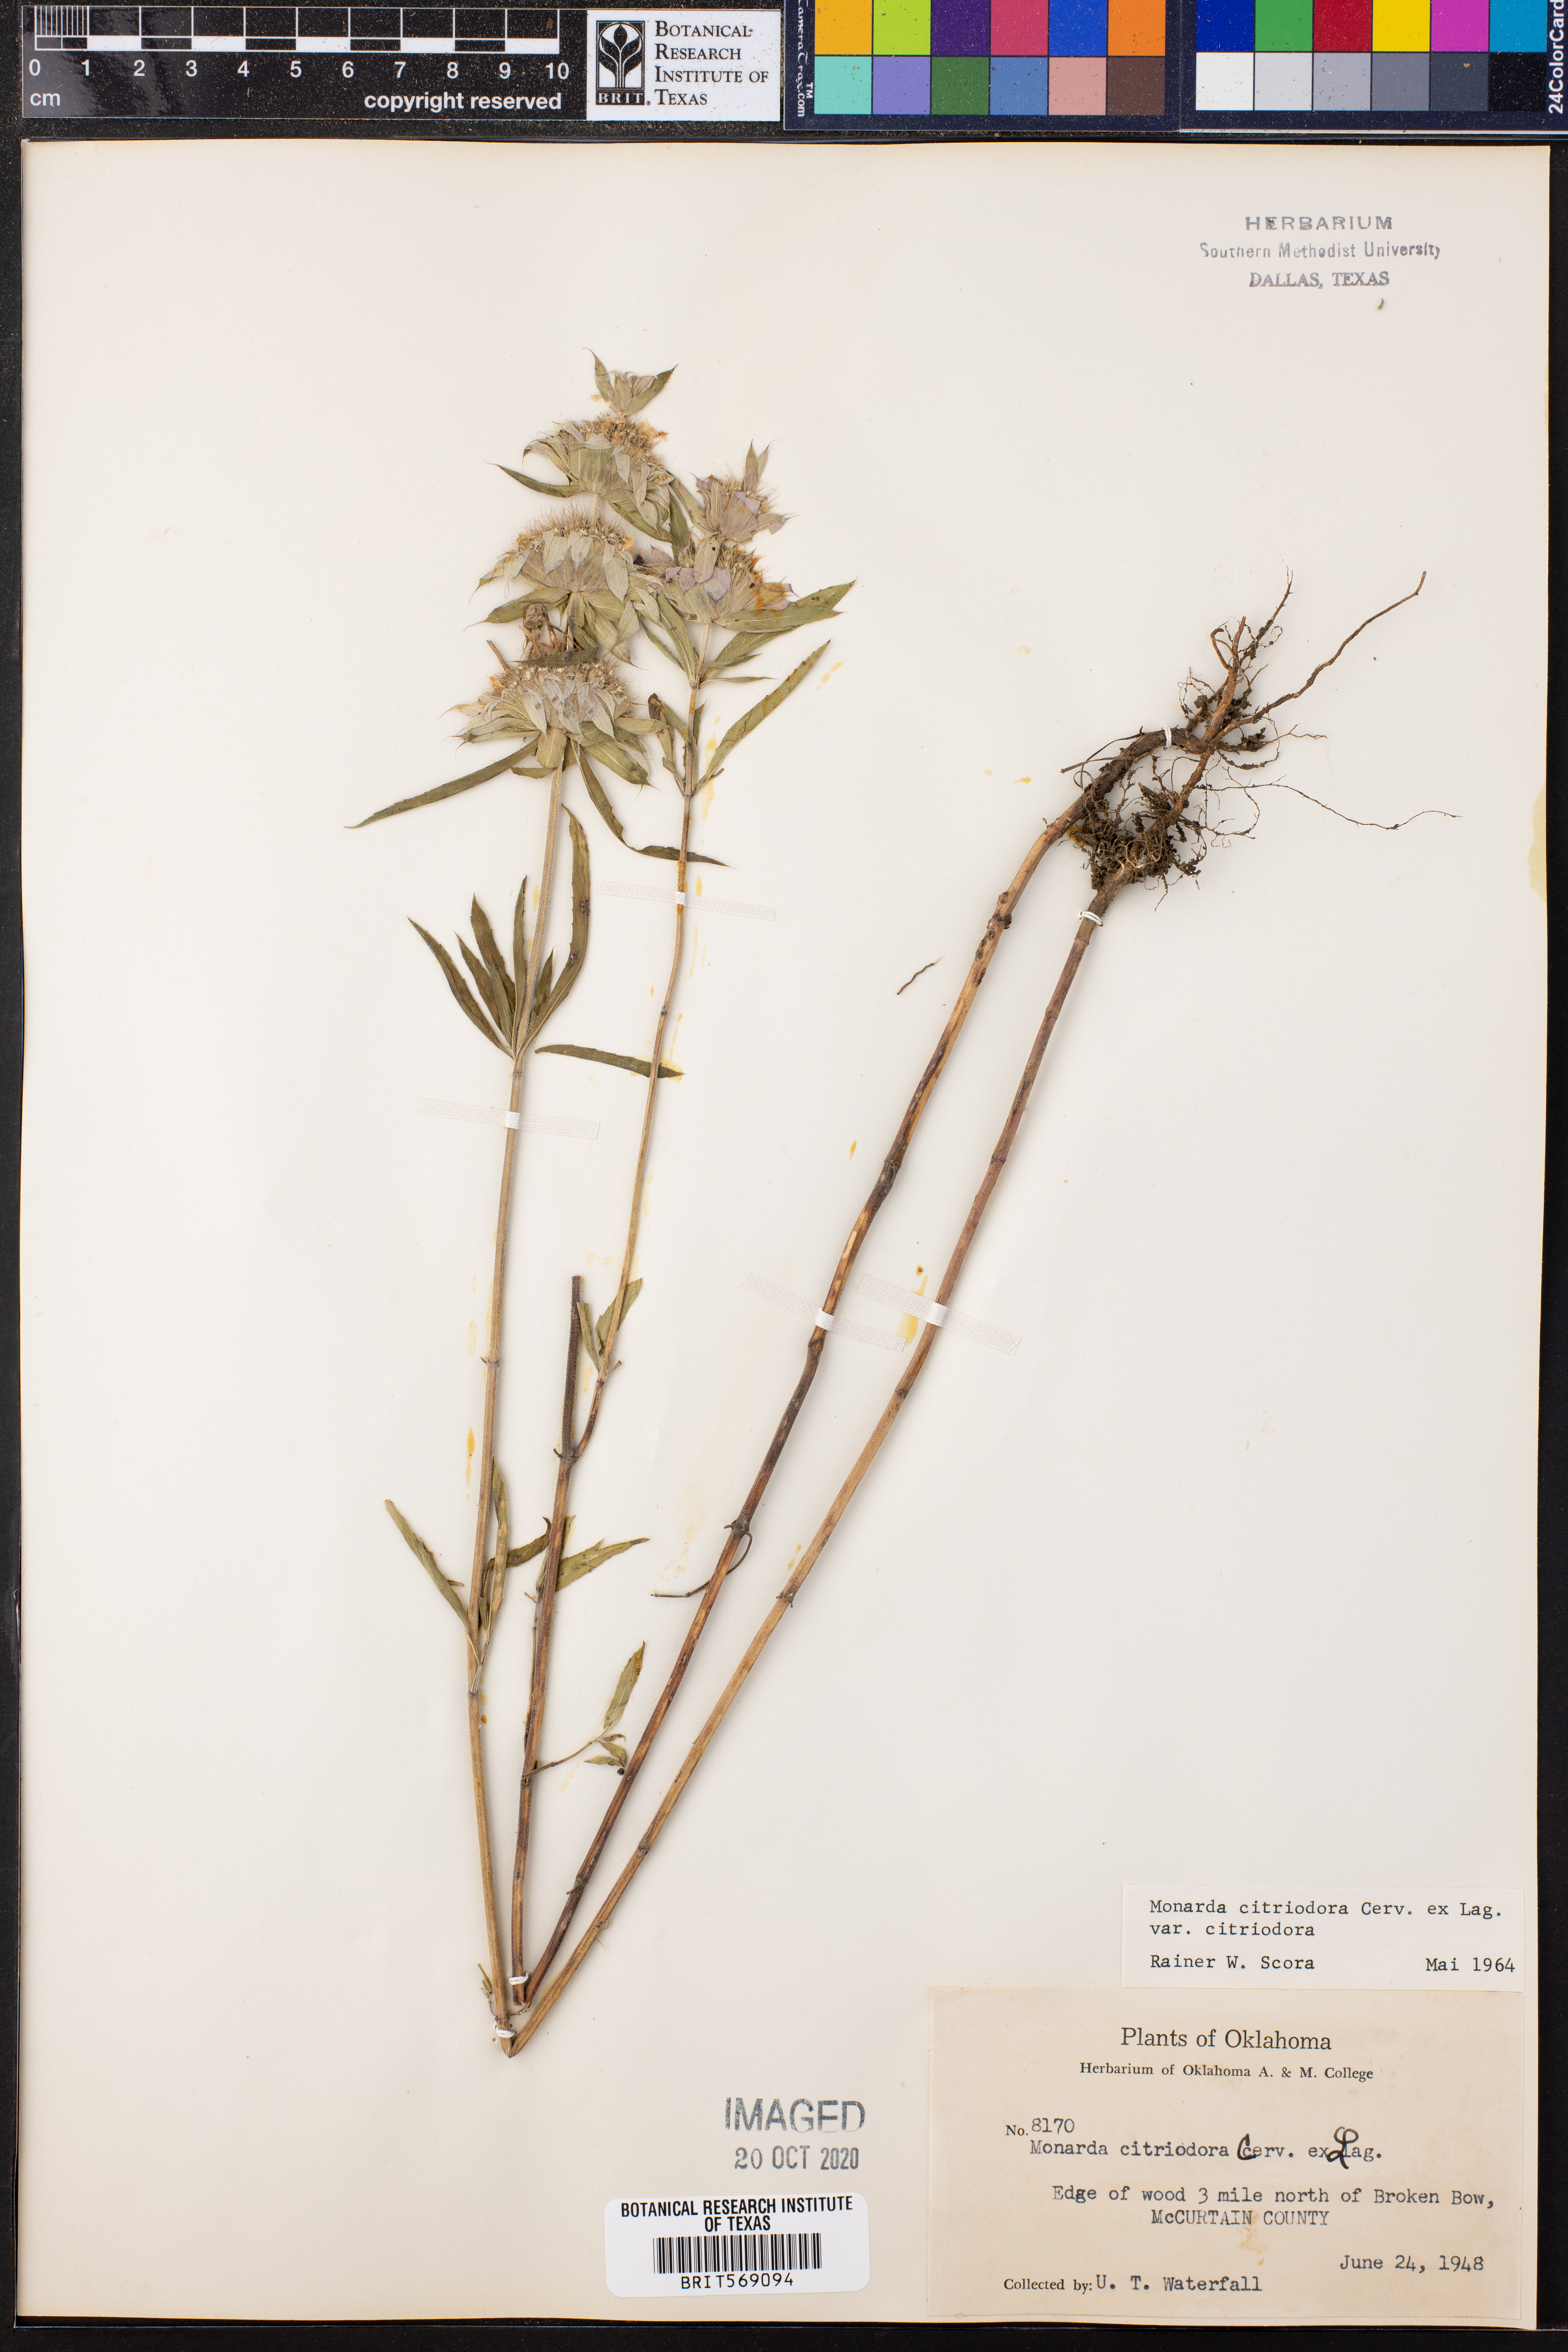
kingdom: Plantae
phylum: Tracheophyta
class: Magnoliopsida
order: Lamiales
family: Lamiaceae
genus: Monarda
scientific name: Monarda citriodora
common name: Lemon beebalm
